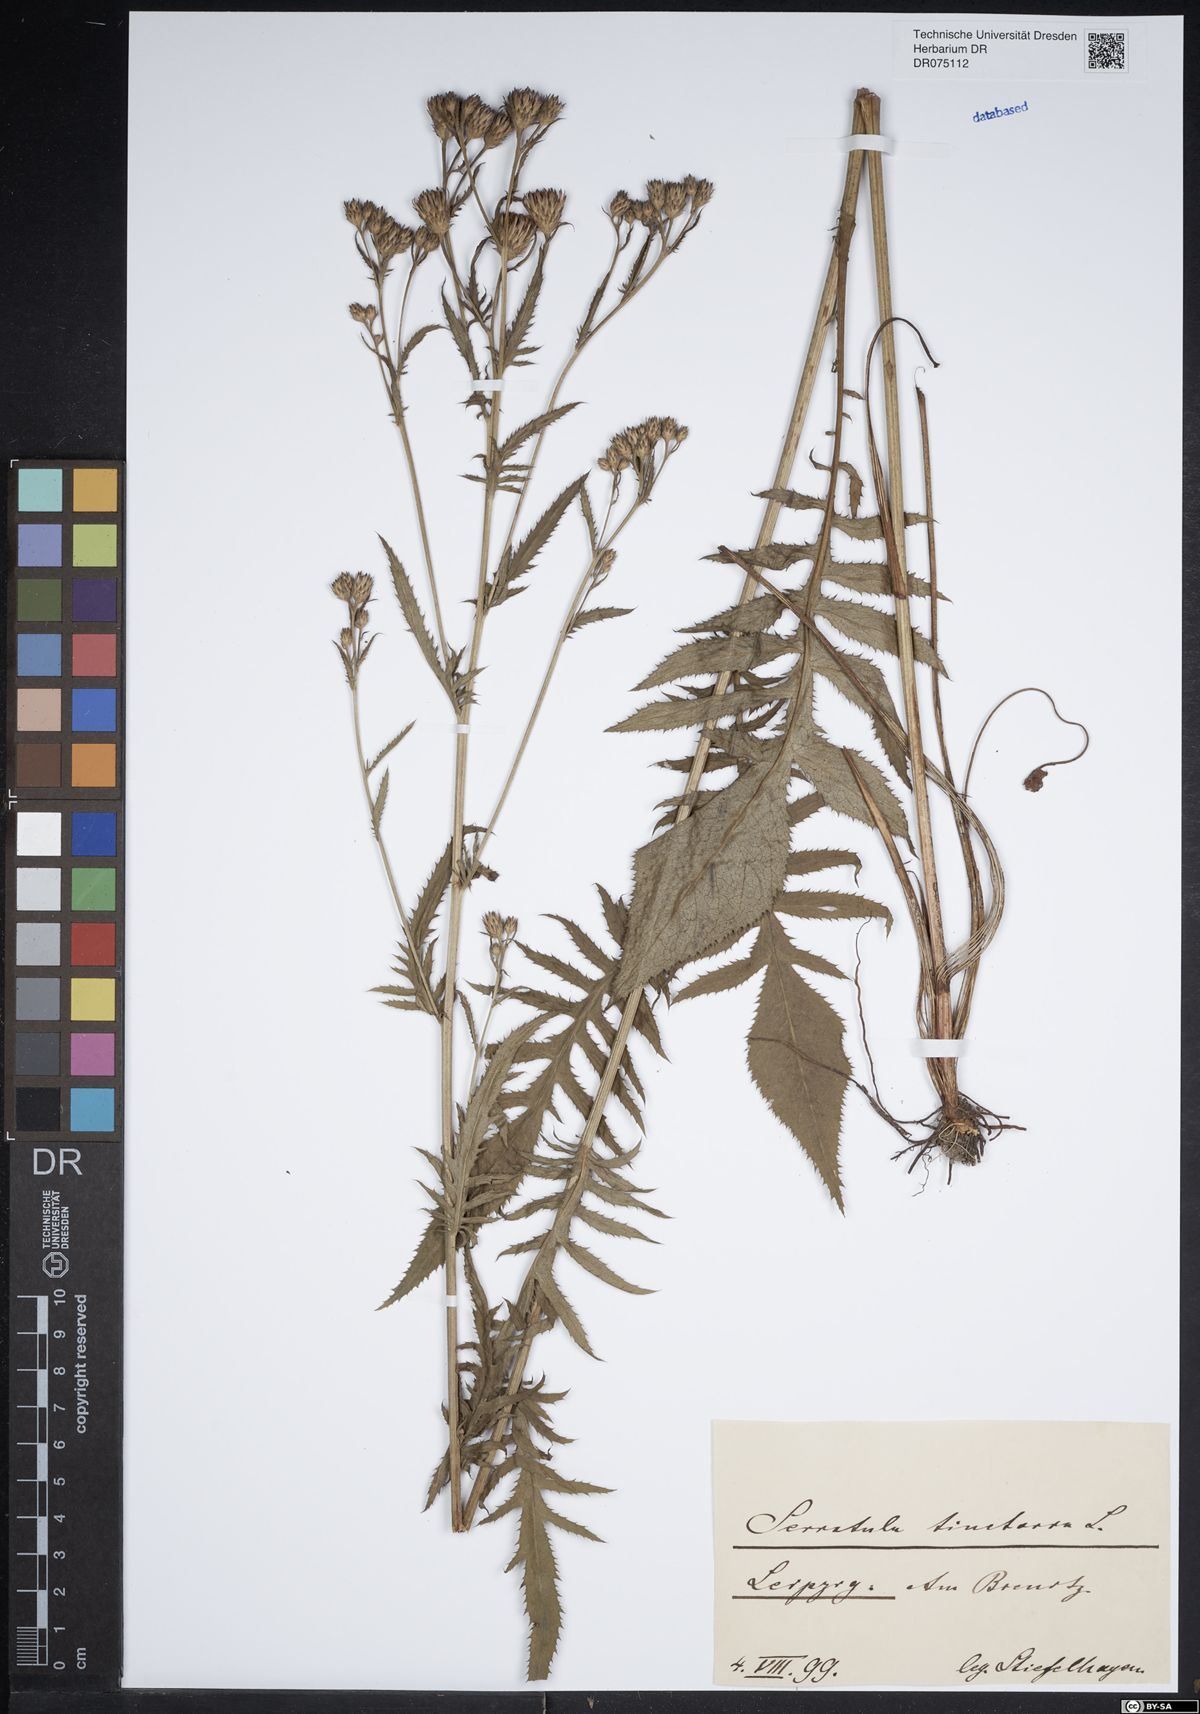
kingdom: Plantae
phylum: Tracheophyta
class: Magnoliopsida
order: Asterales
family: Asteraceae
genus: Serratula
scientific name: Serratula tinctoria
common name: Saw-wort
